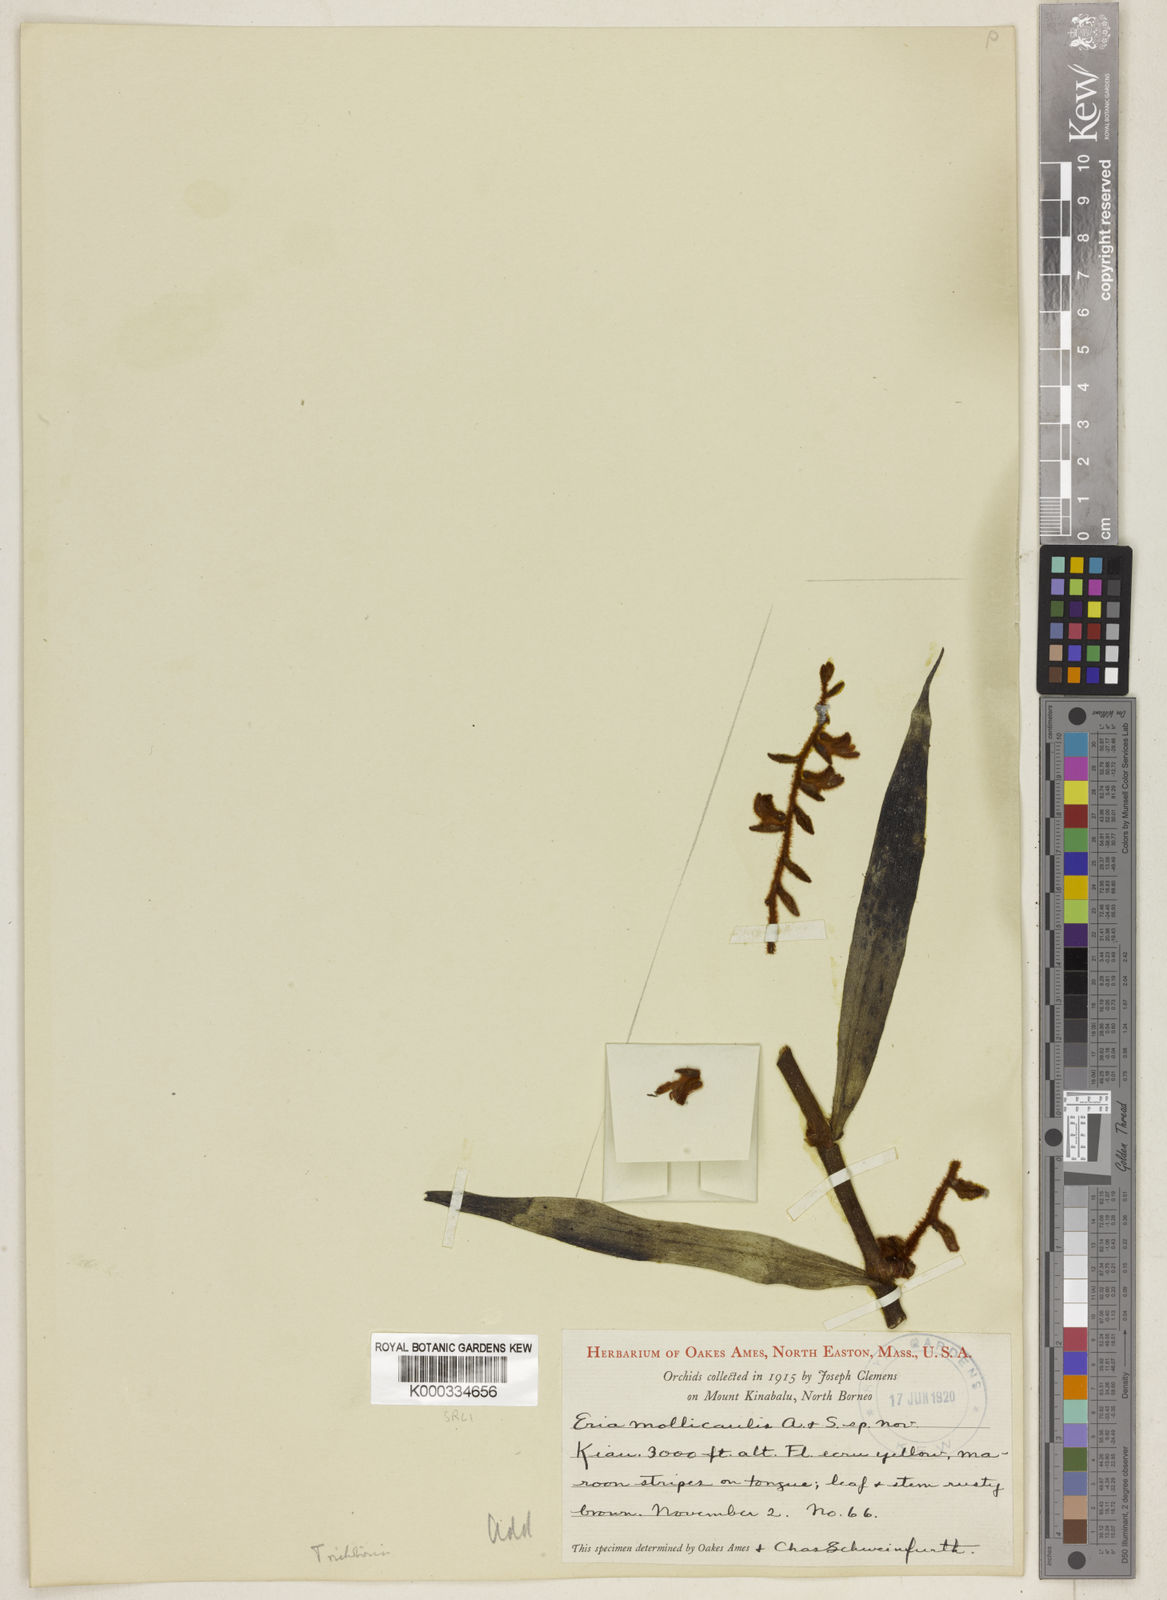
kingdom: Plantae
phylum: Tracheophyta
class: Liliopsida
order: Asparagales
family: Orchidaceae
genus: Trichotosia
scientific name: Trichotosia mollicaulis
